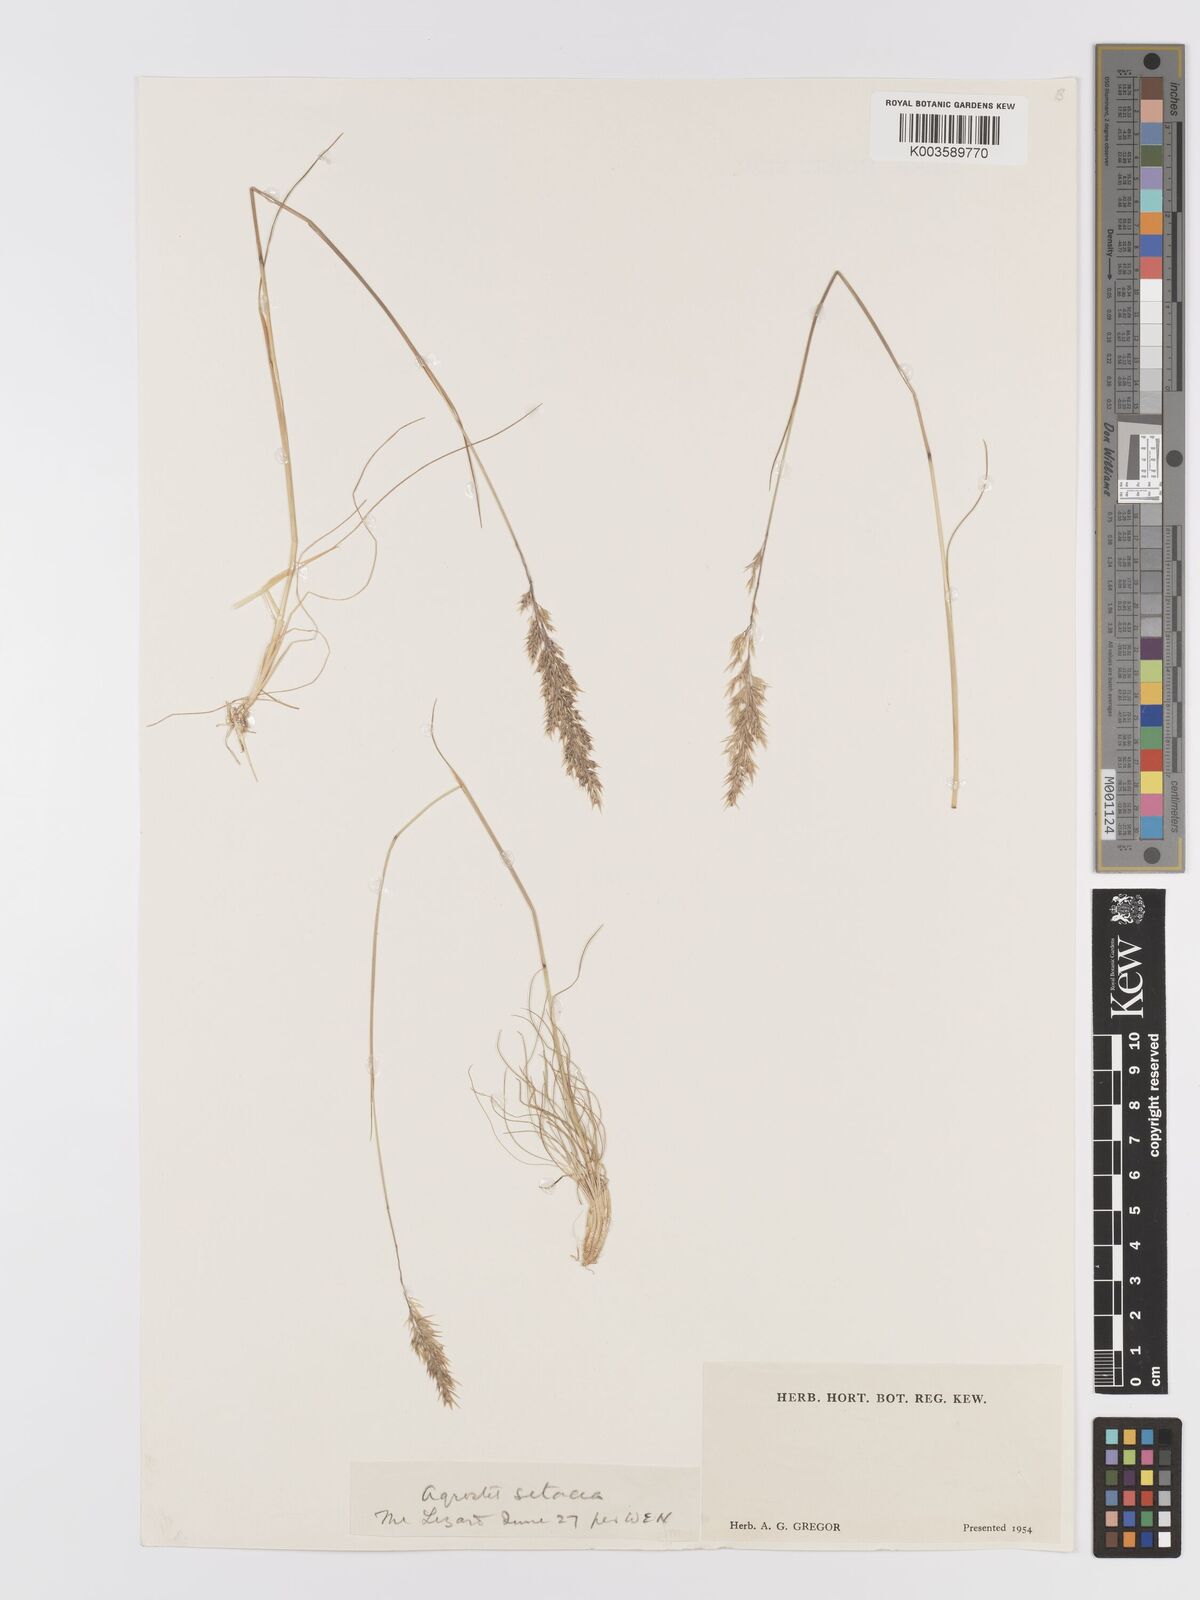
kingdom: Plantae
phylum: Tracheophyta
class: Liliopsida
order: Poales
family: Poaceae
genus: Alpagrostis
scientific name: Alpagrostis setacea
